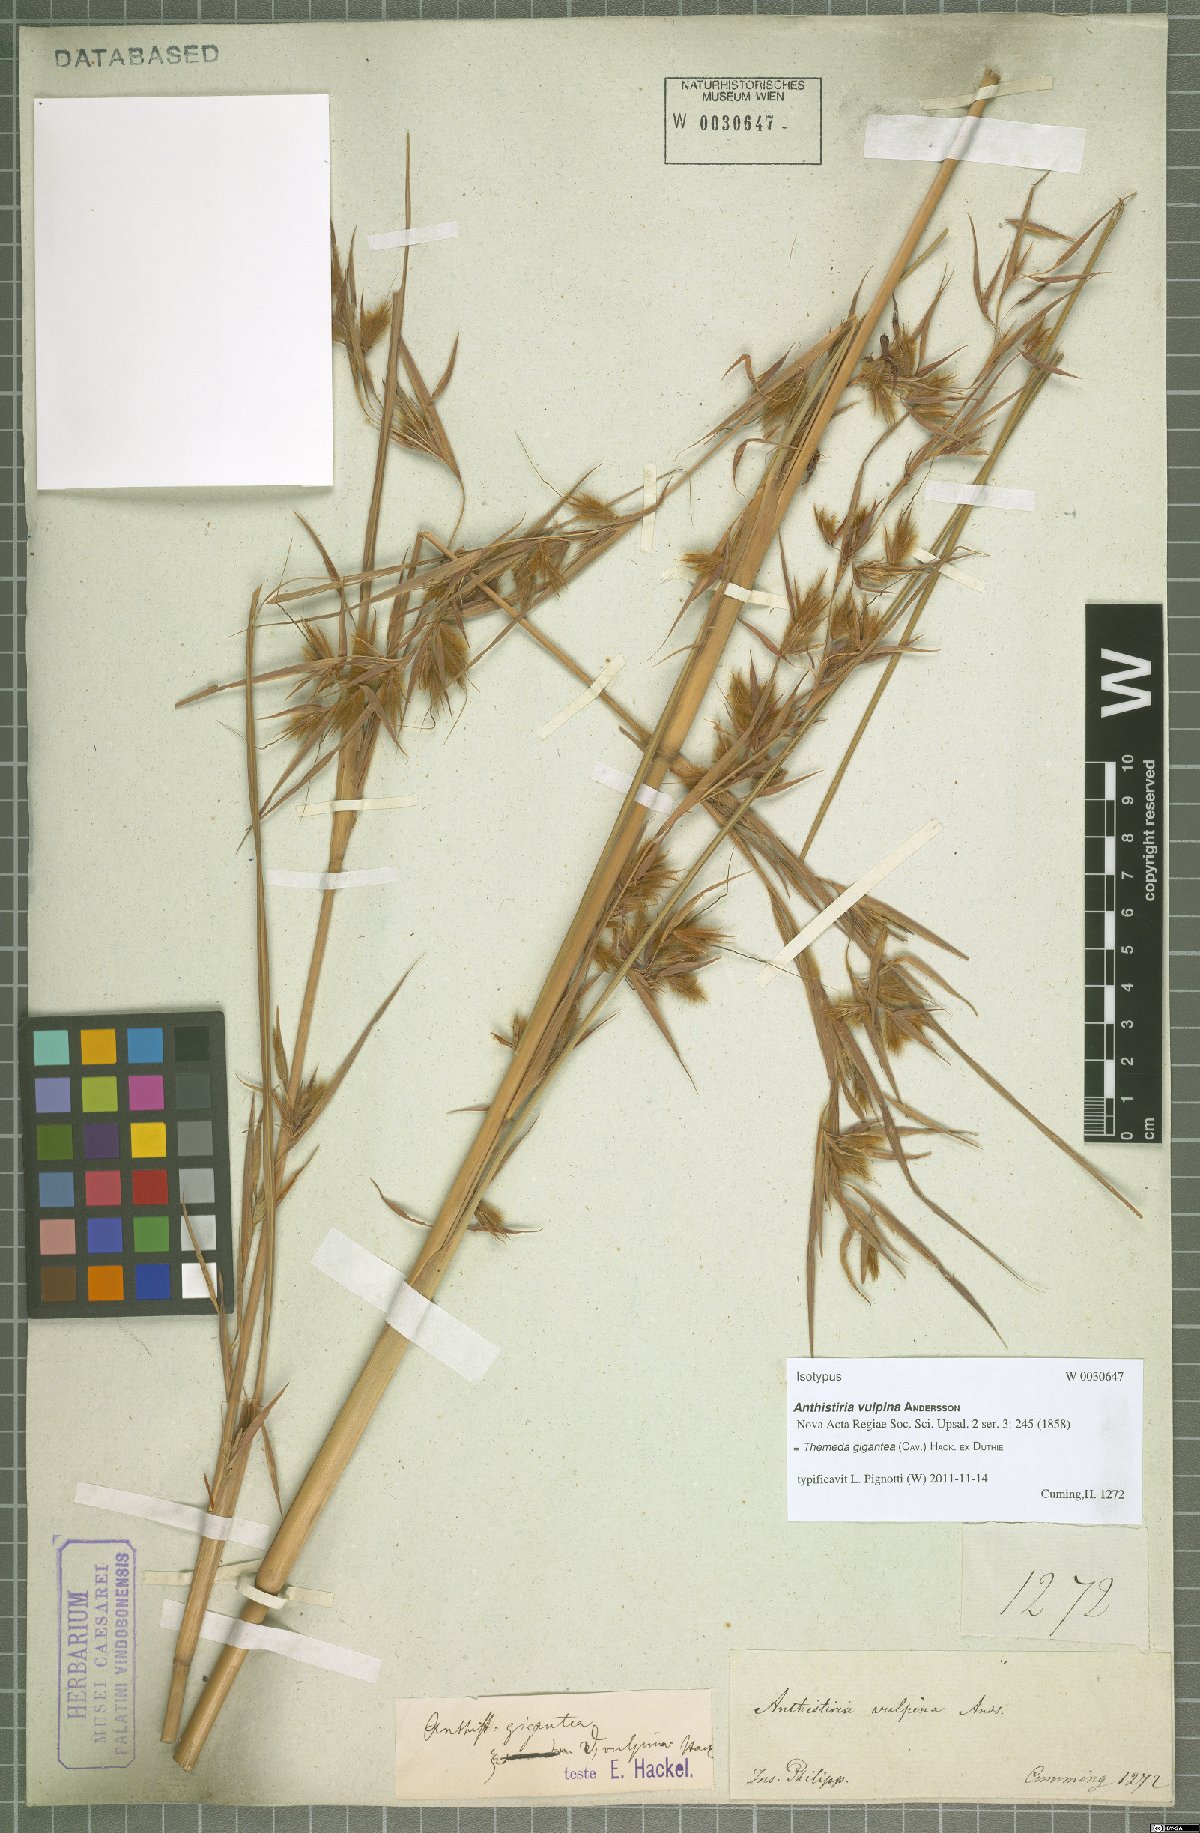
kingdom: Plantae
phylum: Tracheophyta
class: Liliopsida
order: Poales
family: Poaceae
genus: Themeda
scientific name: Themeda gigantea
